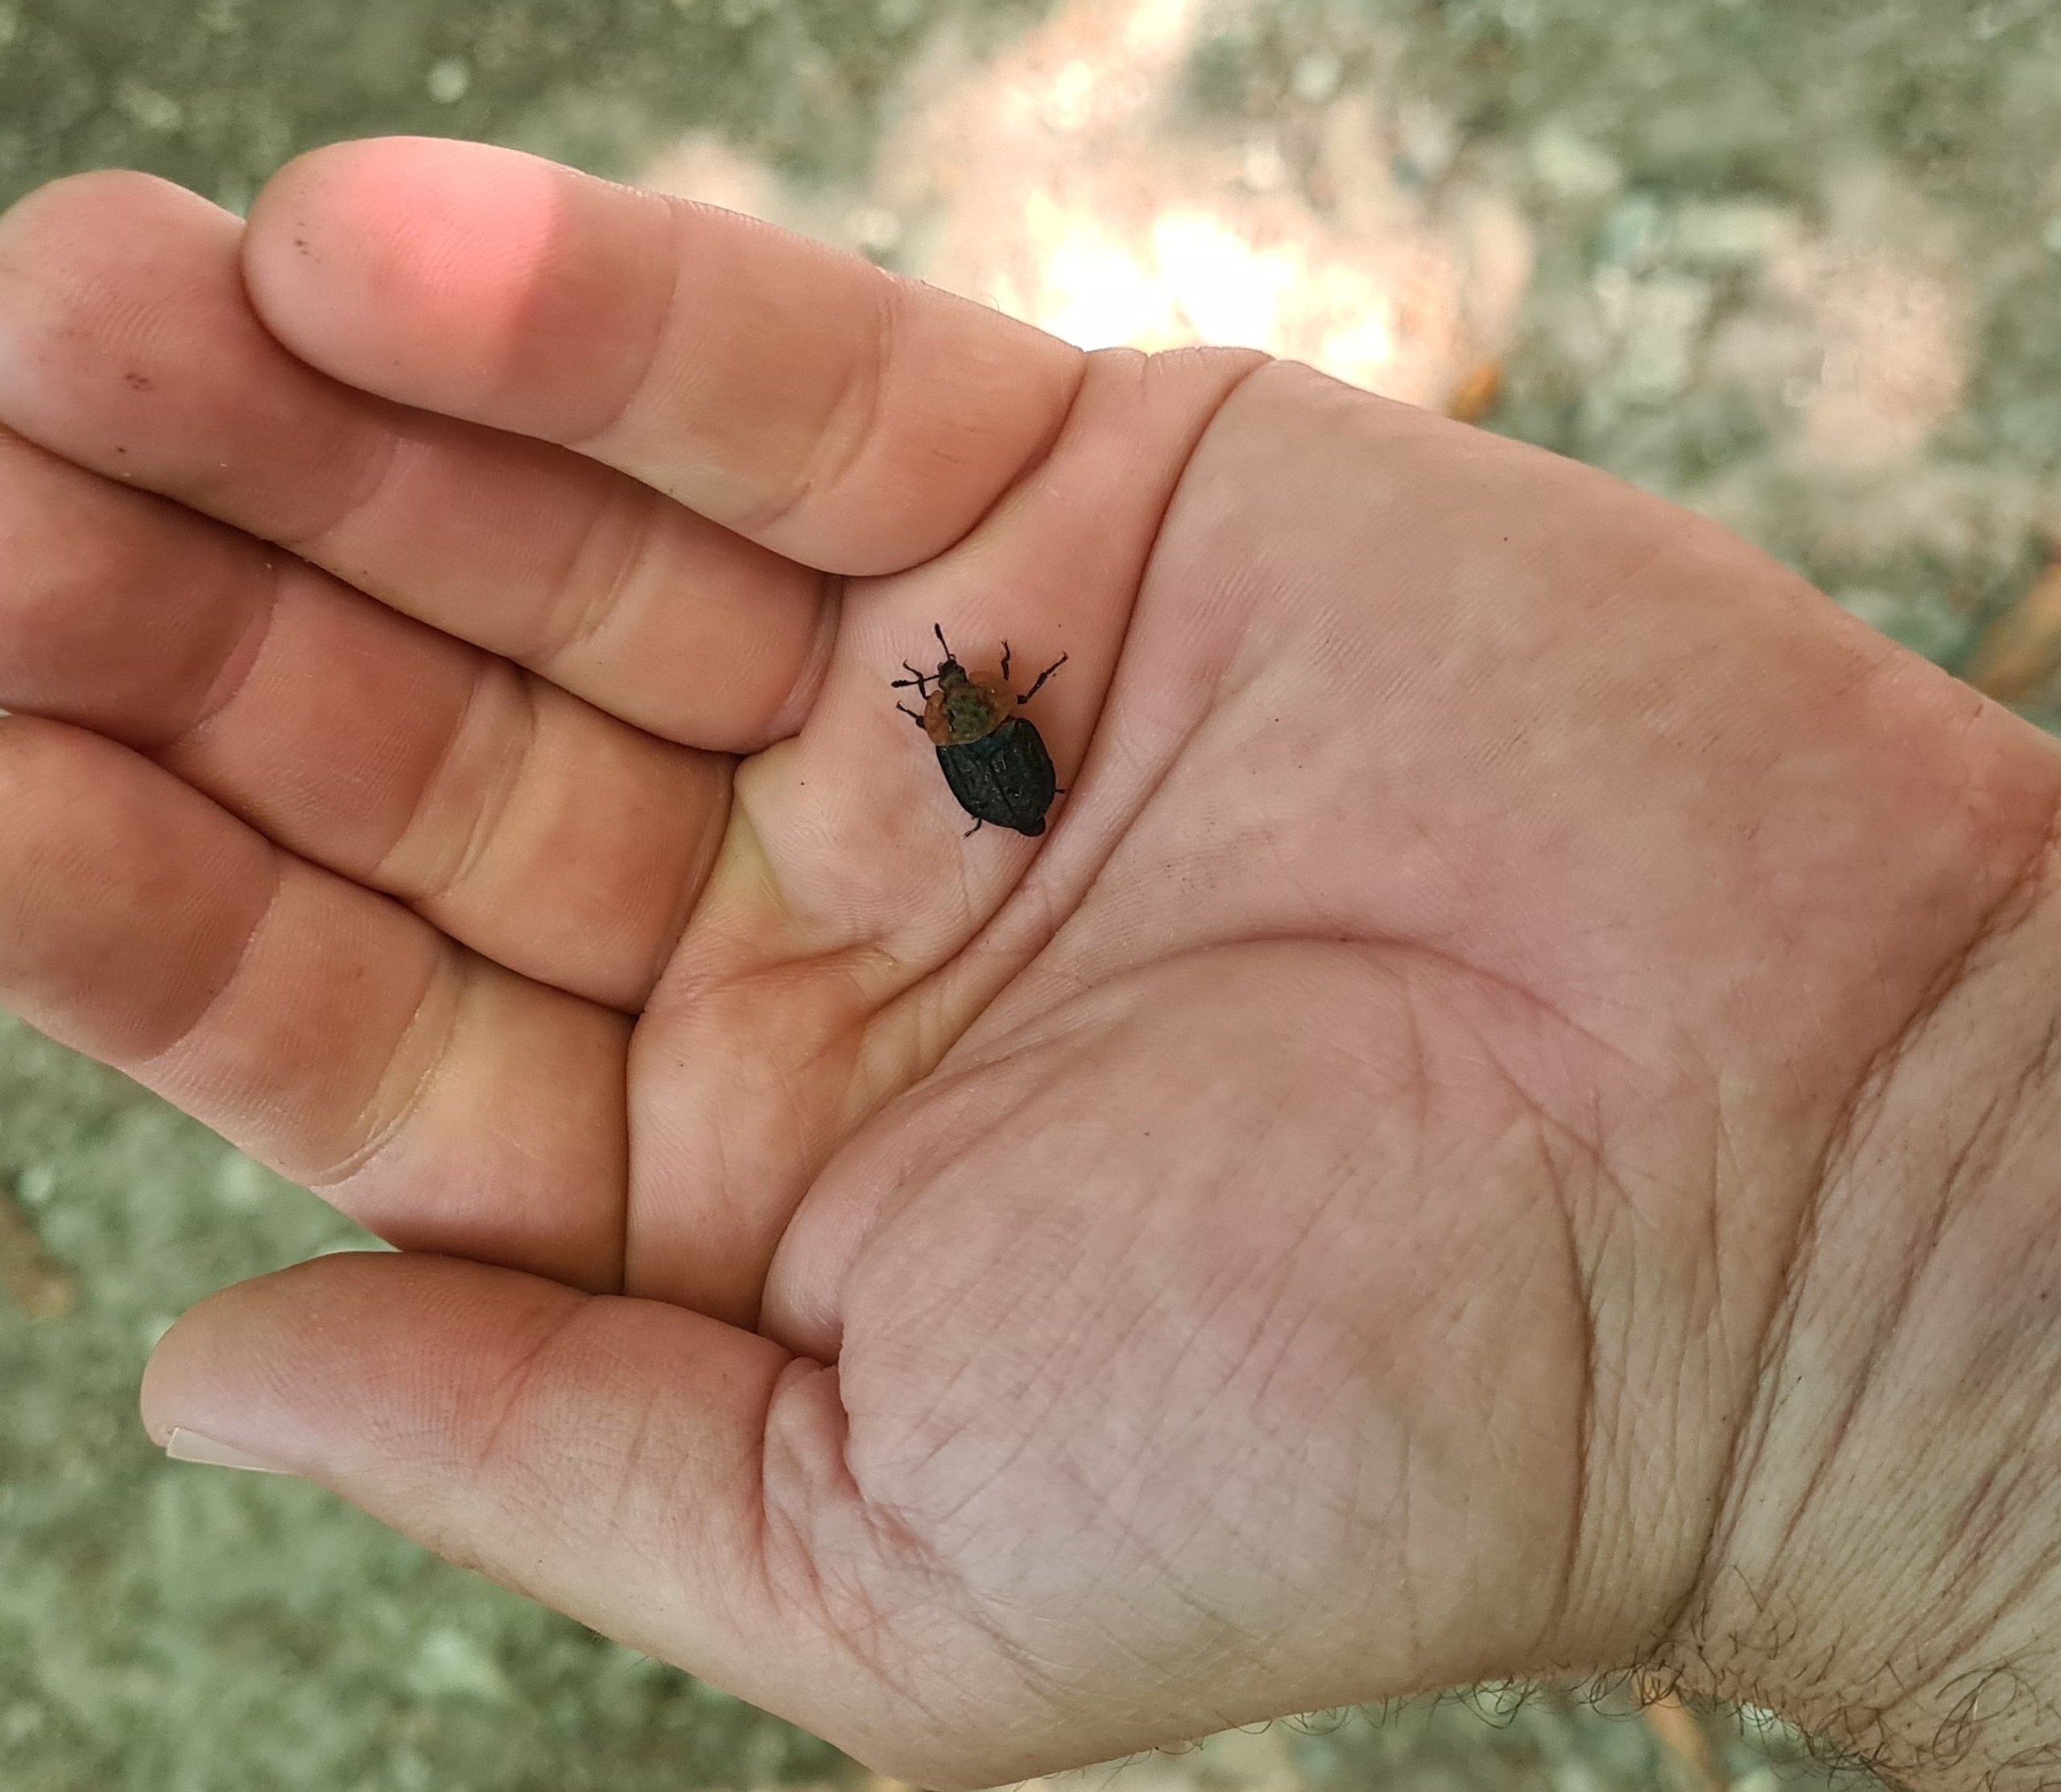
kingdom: Animalia
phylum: Arthropoda
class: Insecta
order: Coleoptera
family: Staphylinidae
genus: Oiceoptoma
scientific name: Oiceoptoma thoracicum
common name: Rødbrystet ådselbille
